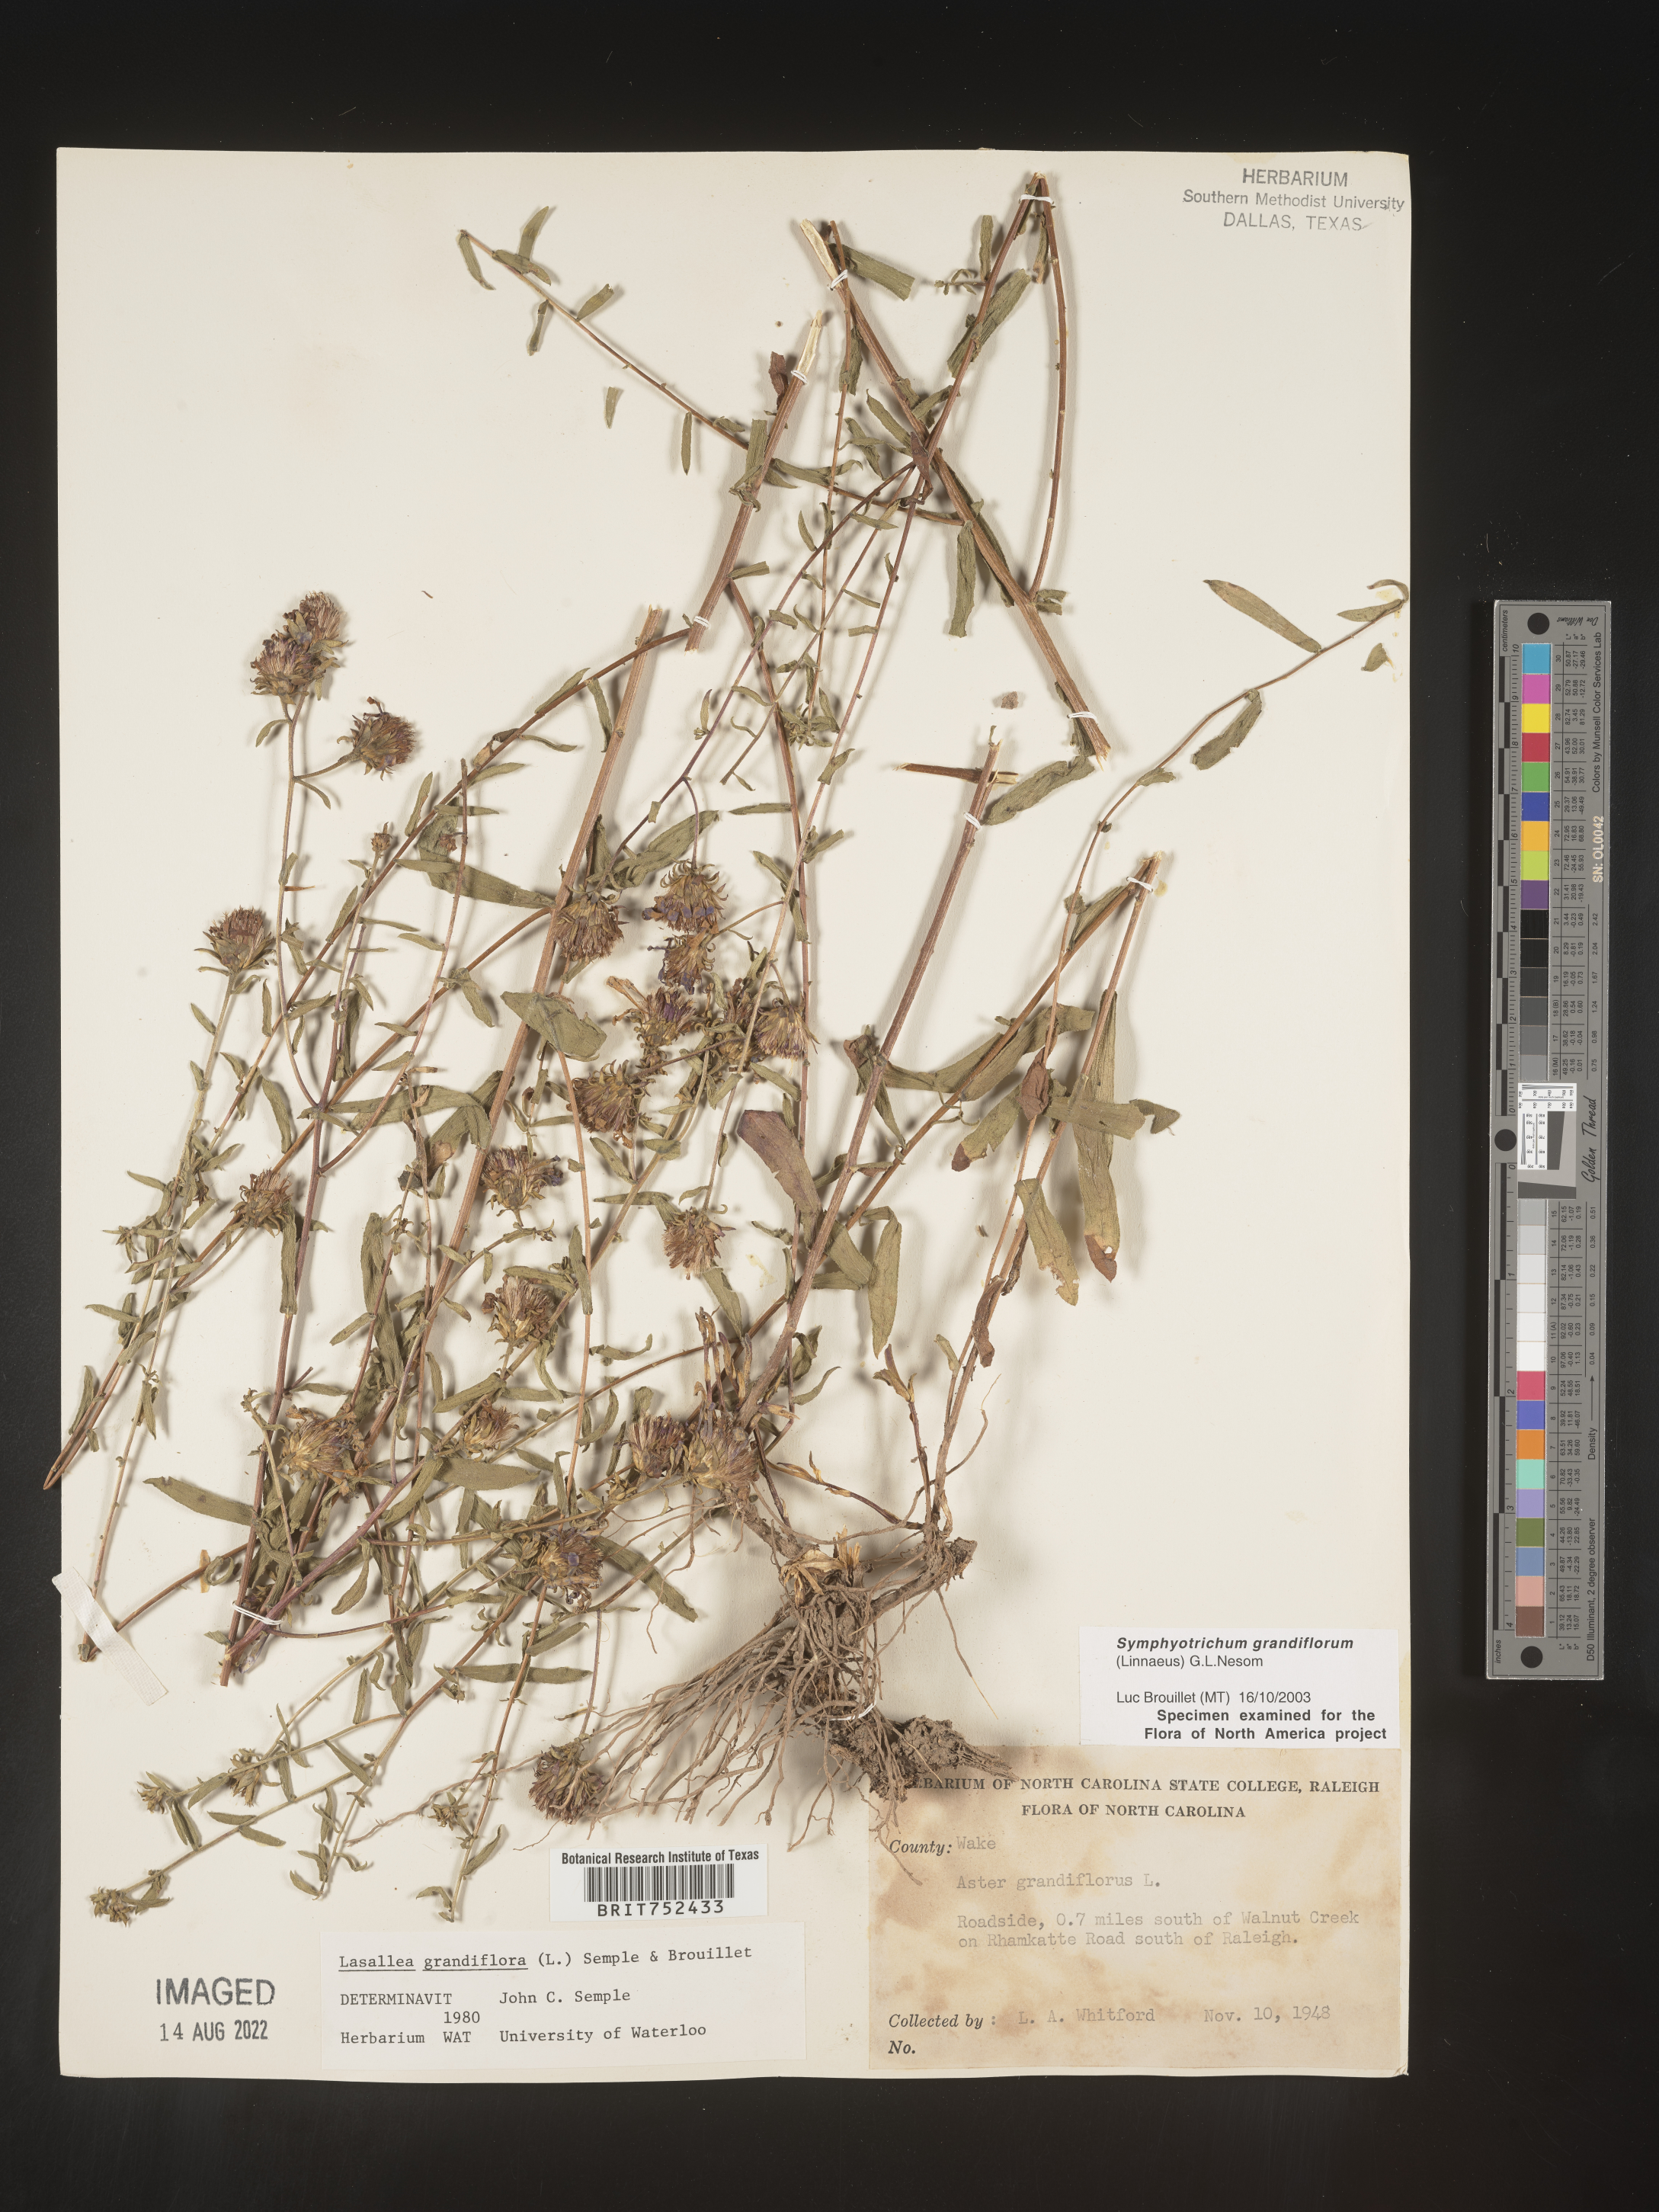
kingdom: Plantae
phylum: Tracheophyta
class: Magnoliopsida
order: Asterales
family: Asteraceae
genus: Symphyotrichum
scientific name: Symphyotrichum grandiflorum
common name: Big-head aster
